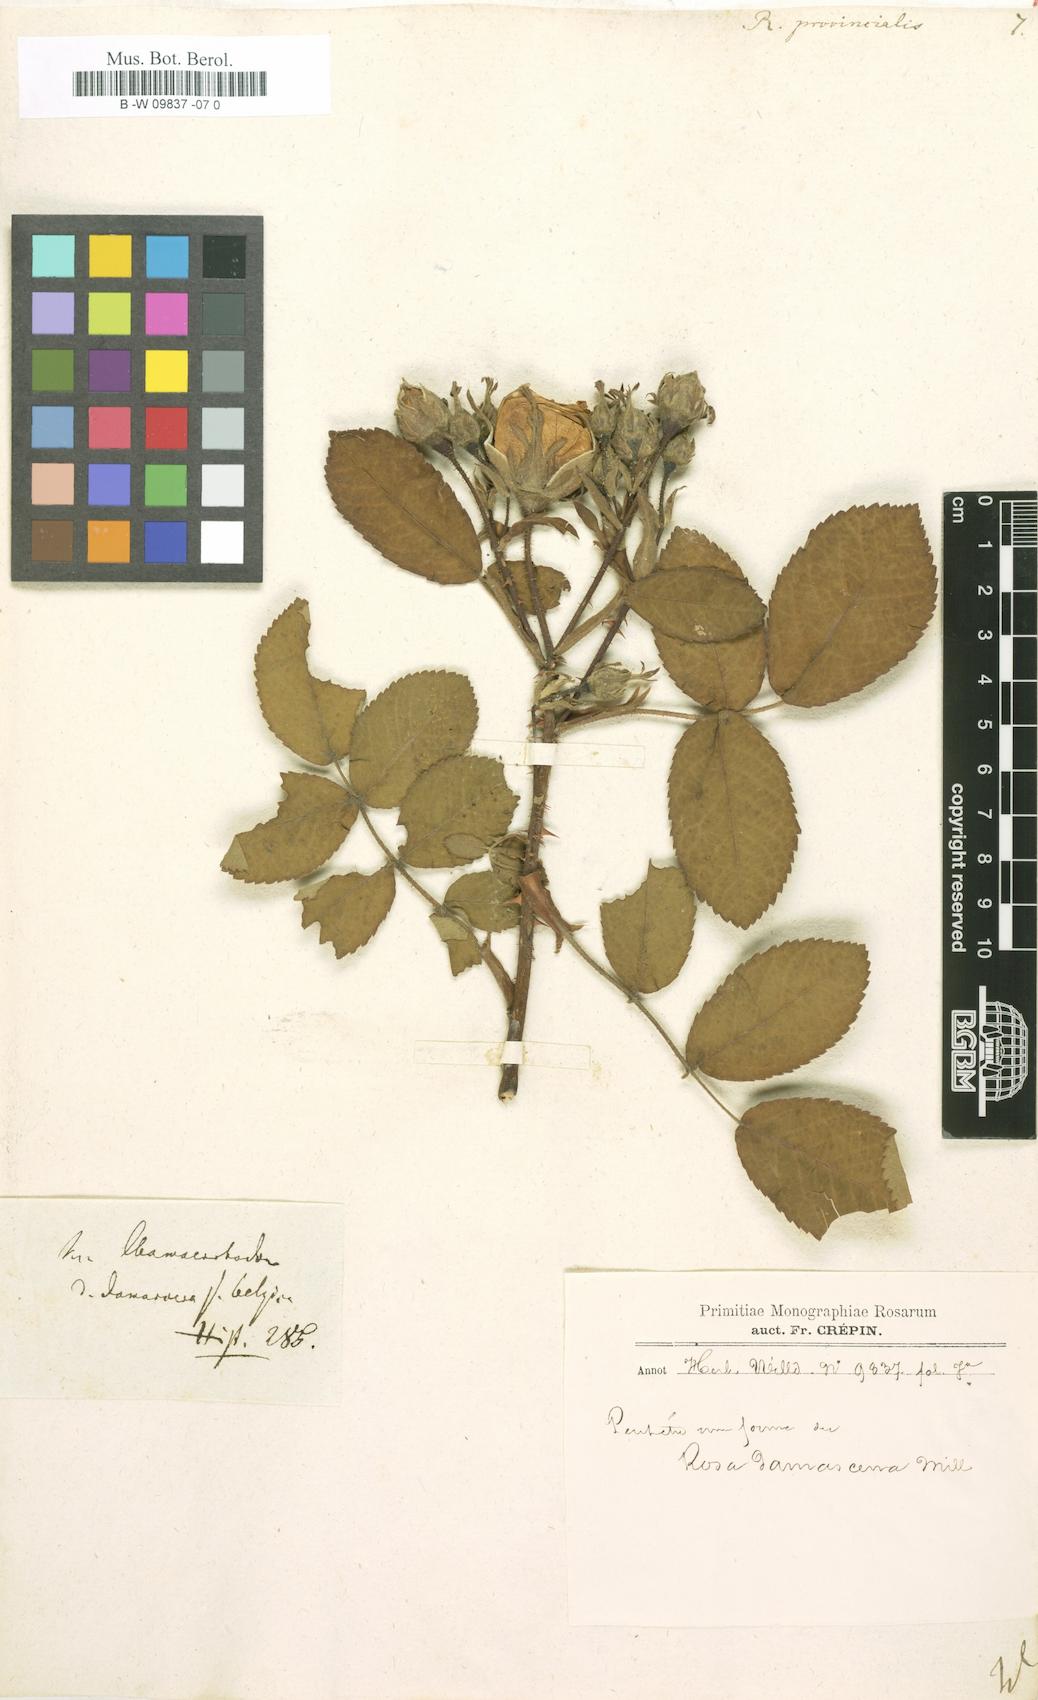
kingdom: Plantae
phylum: Tracheophyta
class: Magnoliopsida
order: Rosales
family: Rosaceae
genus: Rosa
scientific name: Rosa
